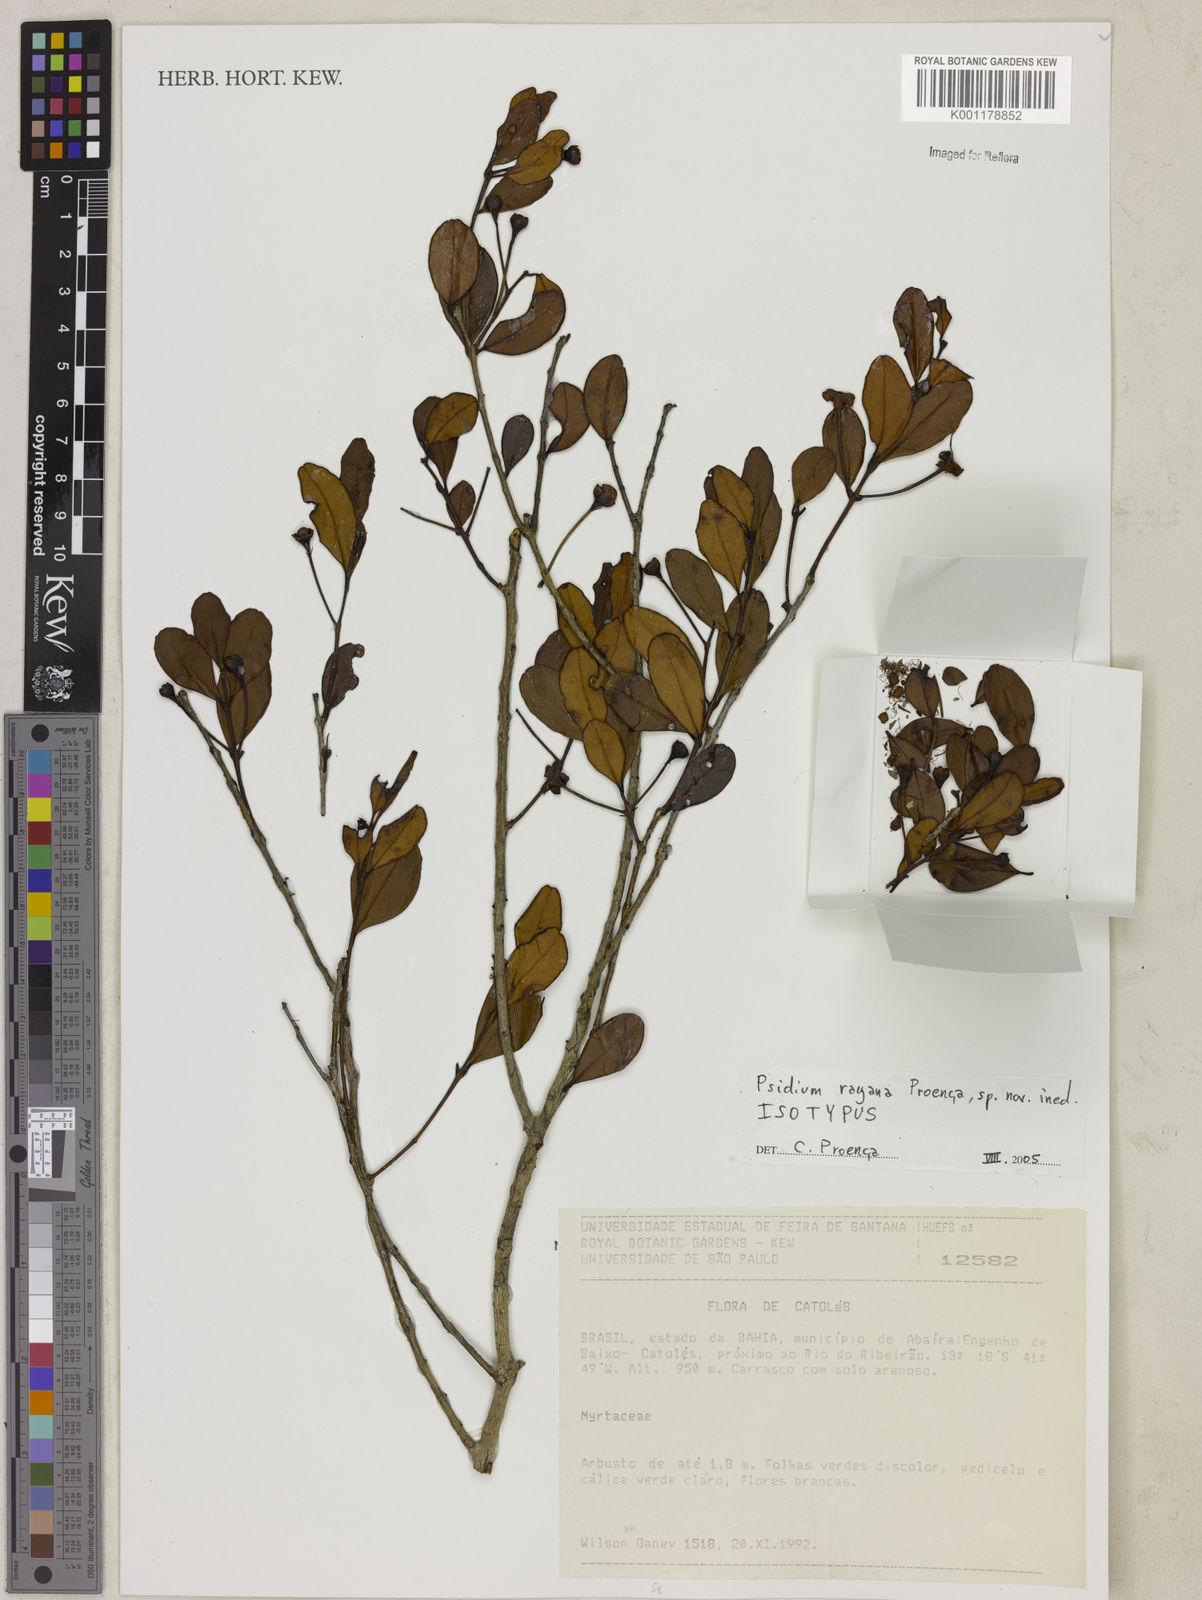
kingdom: Plantae
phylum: Tracheophyta
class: Magnoliopsida
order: Myrtales
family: Myrtaceae
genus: Psidium
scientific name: Psidium
